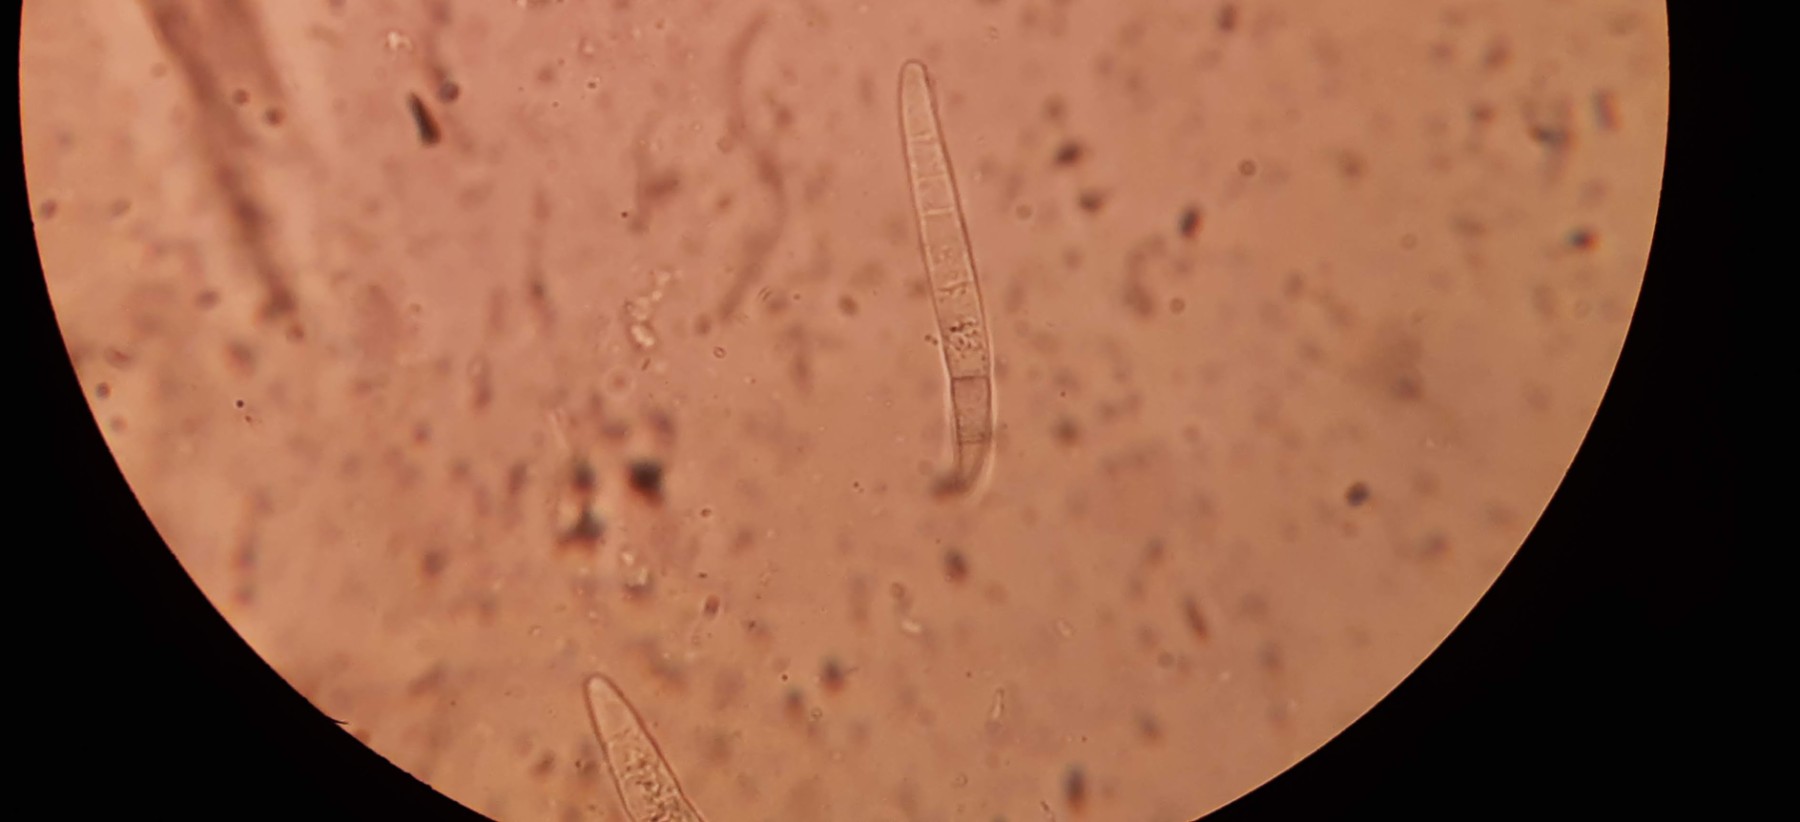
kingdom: Fungi
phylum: Ascomycota
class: Dothideomycetes
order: Tubeufiales
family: Tubeufiaceae
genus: Acanthostigma
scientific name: Acanthostigma
